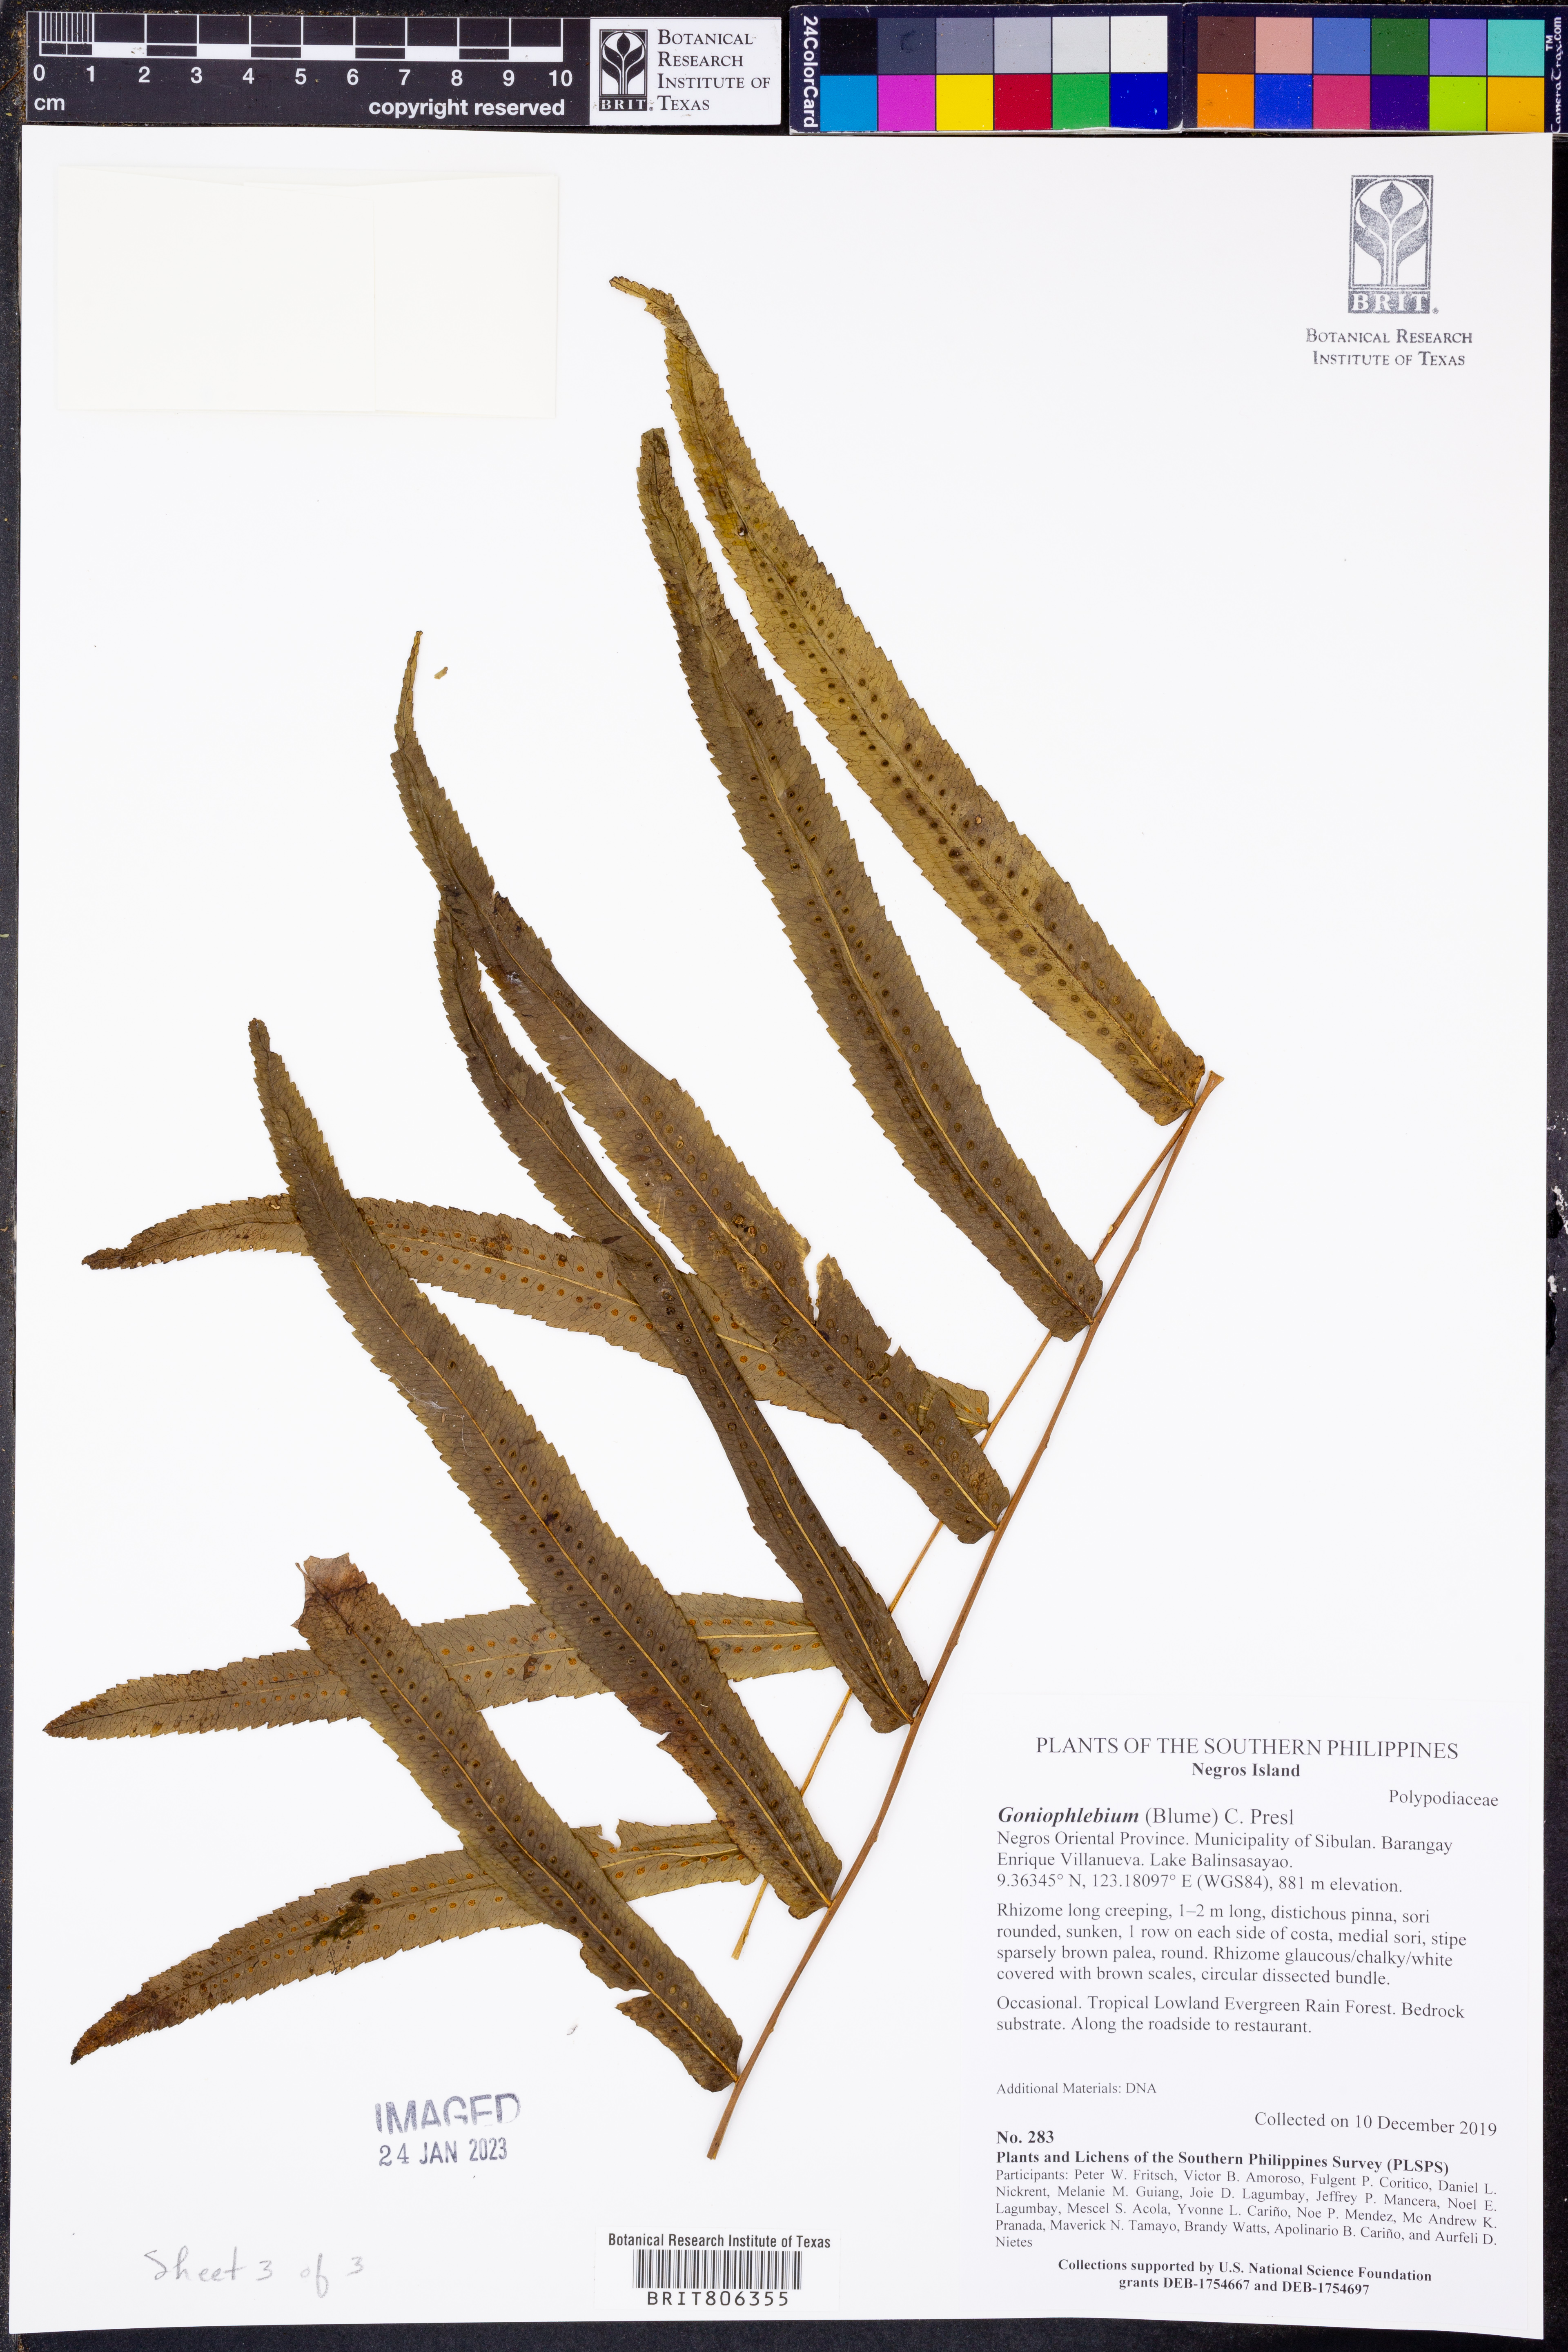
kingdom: Plantae
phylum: Tracheophyta
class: Polypodiopsida
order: Polypodiales
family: Polypodiaceae
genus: Goniophlebium
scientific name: Goniophlebium
